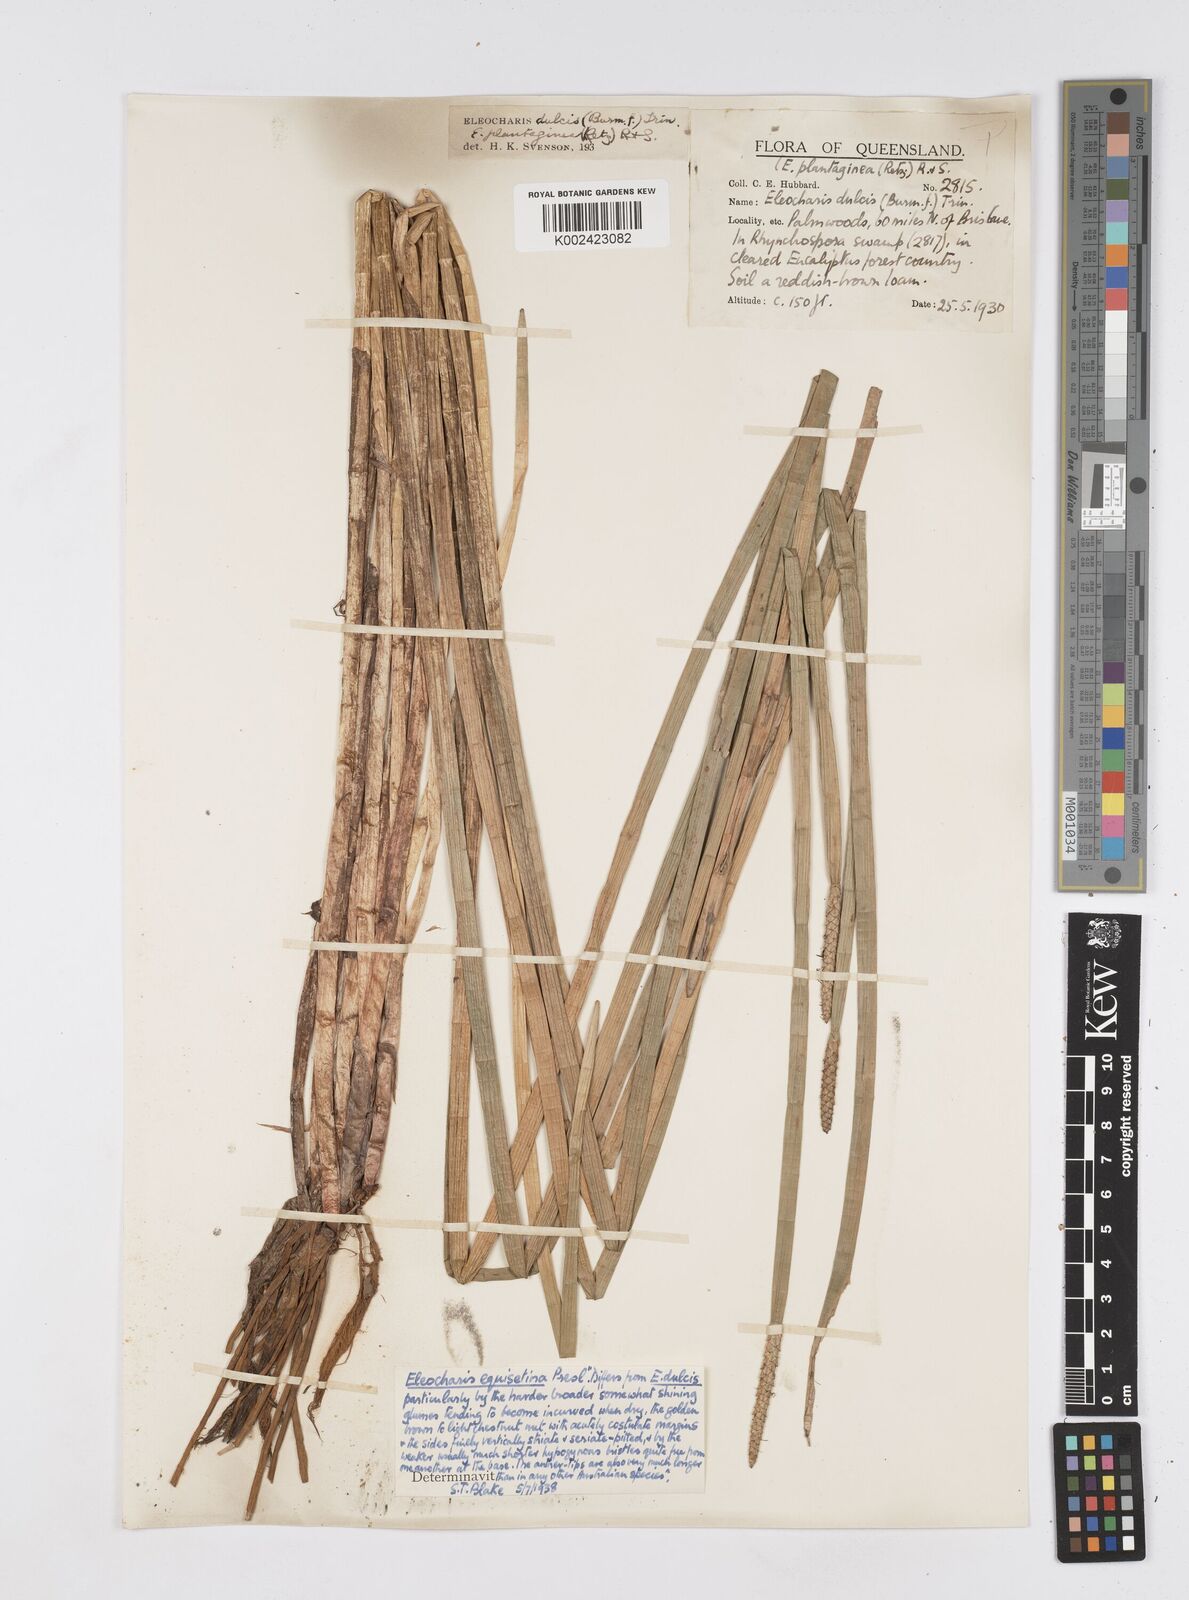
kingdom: Plantae
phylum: Tracheophyta
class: Liliopsida
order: Poales
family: Cyperaceae
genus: Eleocharis
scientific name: Eleocharis dulcis
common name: Chinese water chestnut
